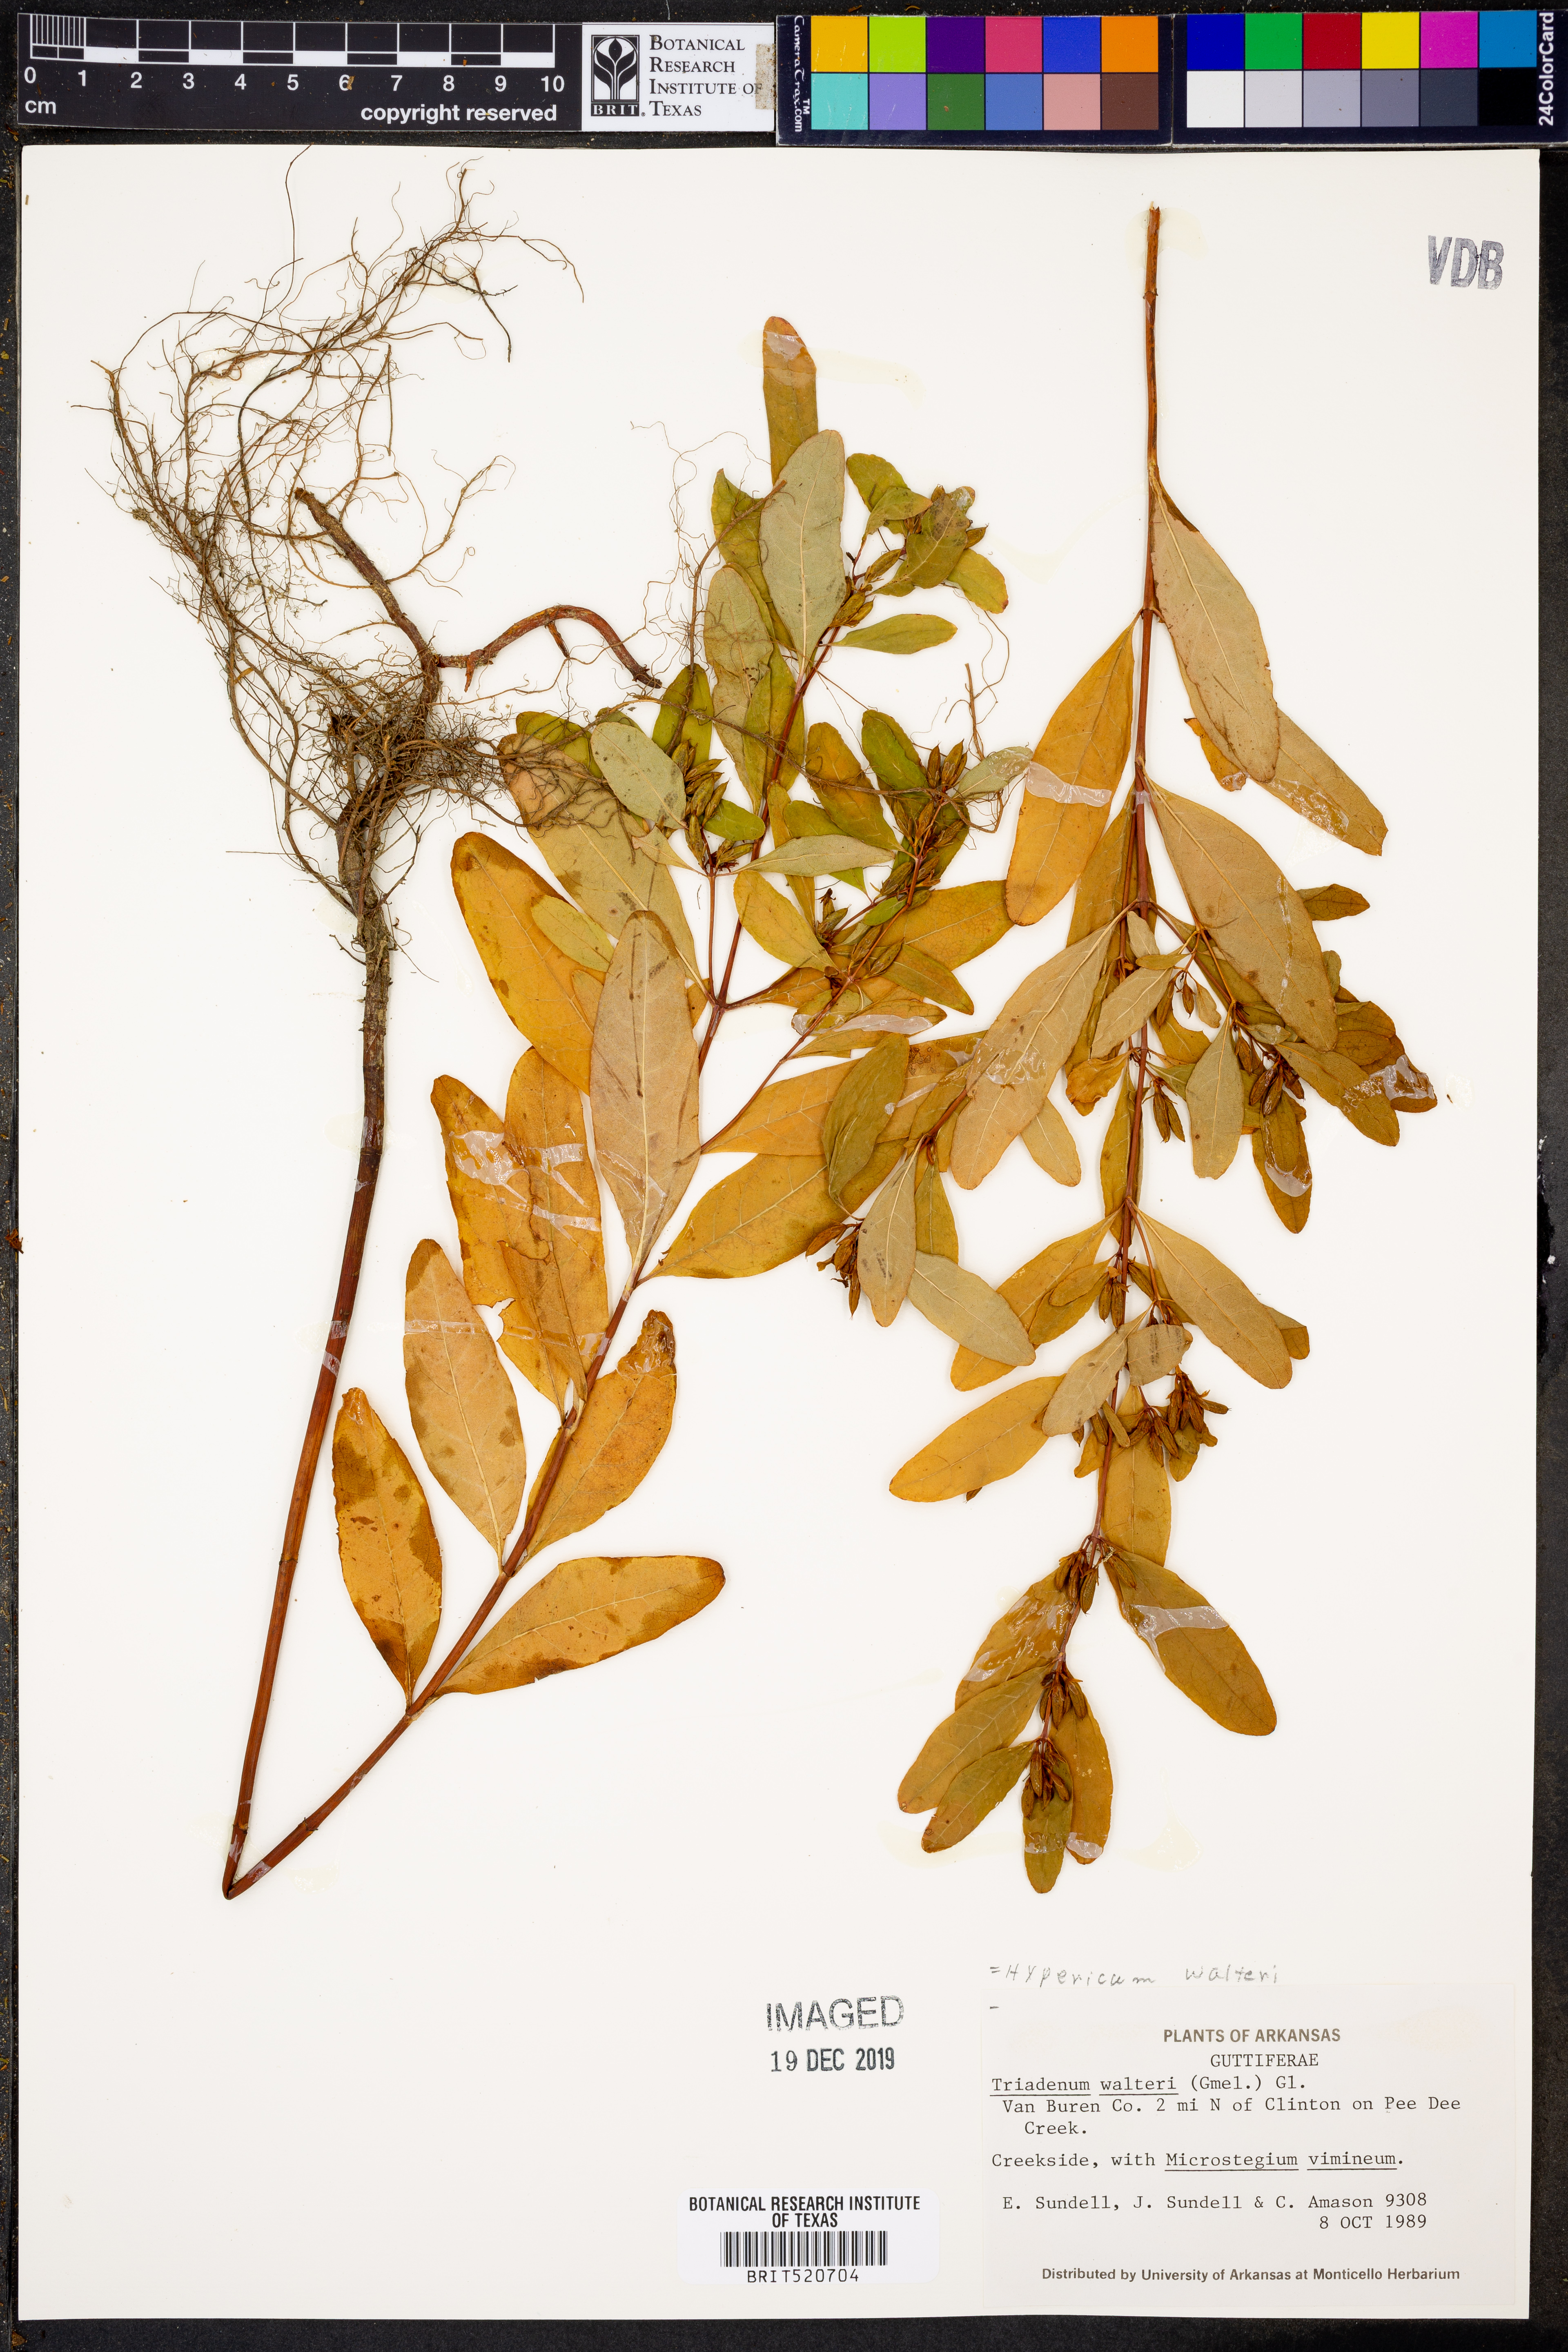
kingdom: Plantae
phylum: Tracheophyta
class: Magnoliopsida
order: Malpighiales
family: Hypericaceae
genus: Triadenum
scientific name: Triadenum walteri
